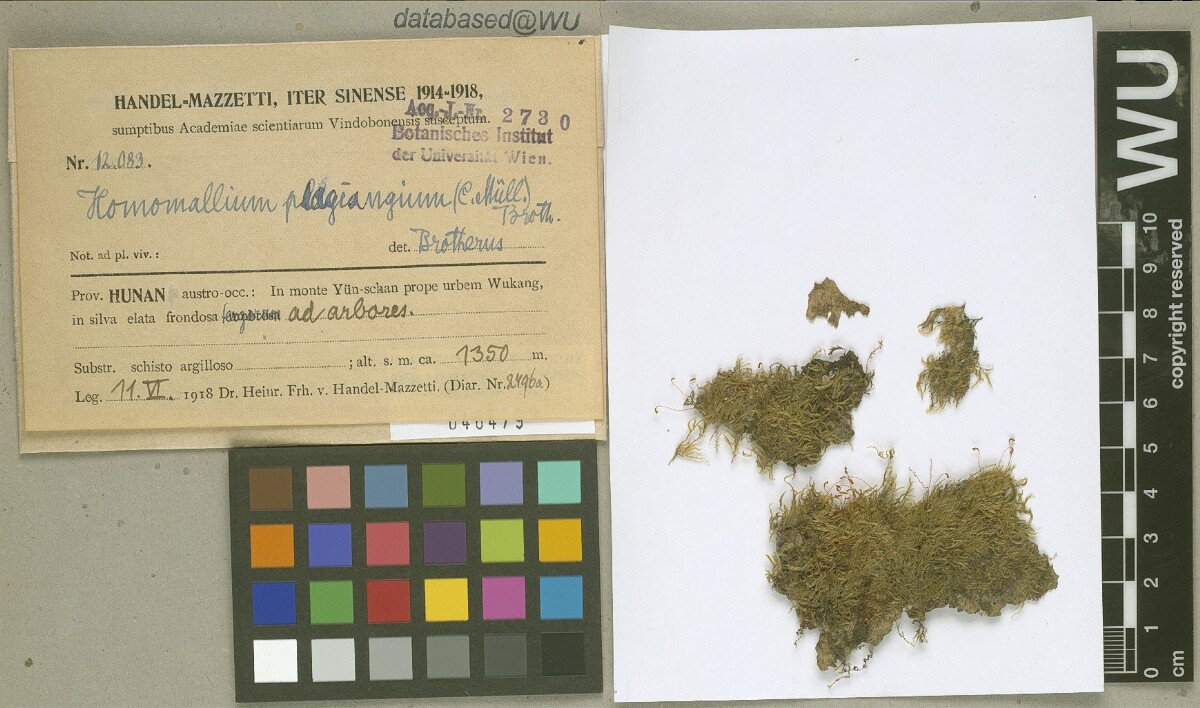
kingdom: Plantae
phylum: Bryophyta
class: Bryopsida
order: Hypnales
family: Pylaisiaceae
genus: Homomallium
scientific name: Homomallium plagiangium
